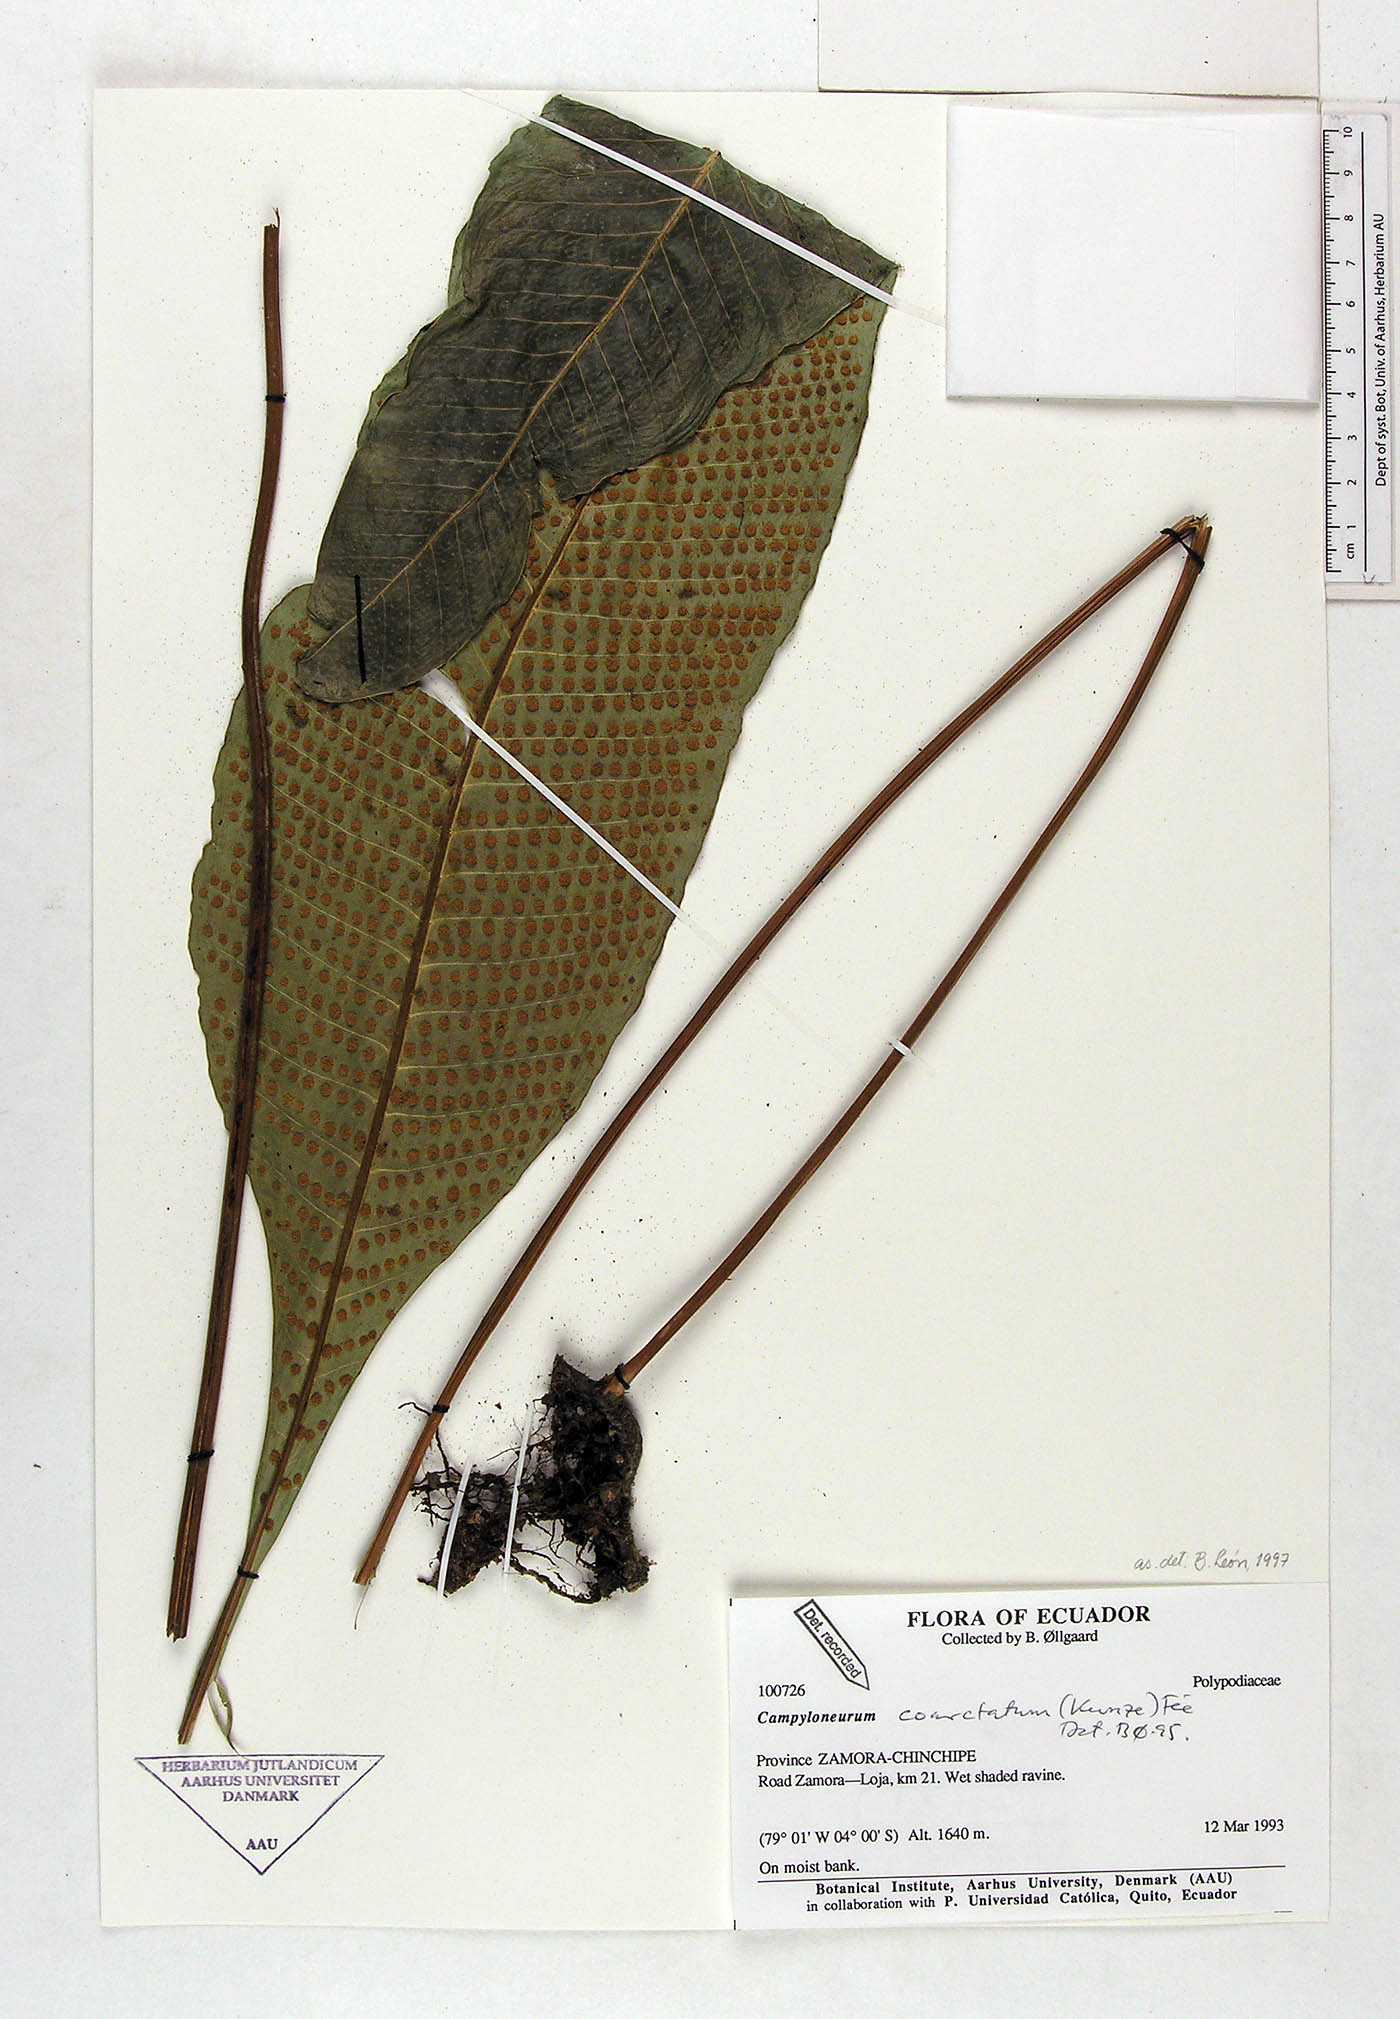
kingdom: Plantae
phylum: Tracheophyta
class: Polypodiopsida
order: Polypodiales
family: Polypodiaceae
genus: Campyloneurum
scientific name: Campyloneurum coarctatum
